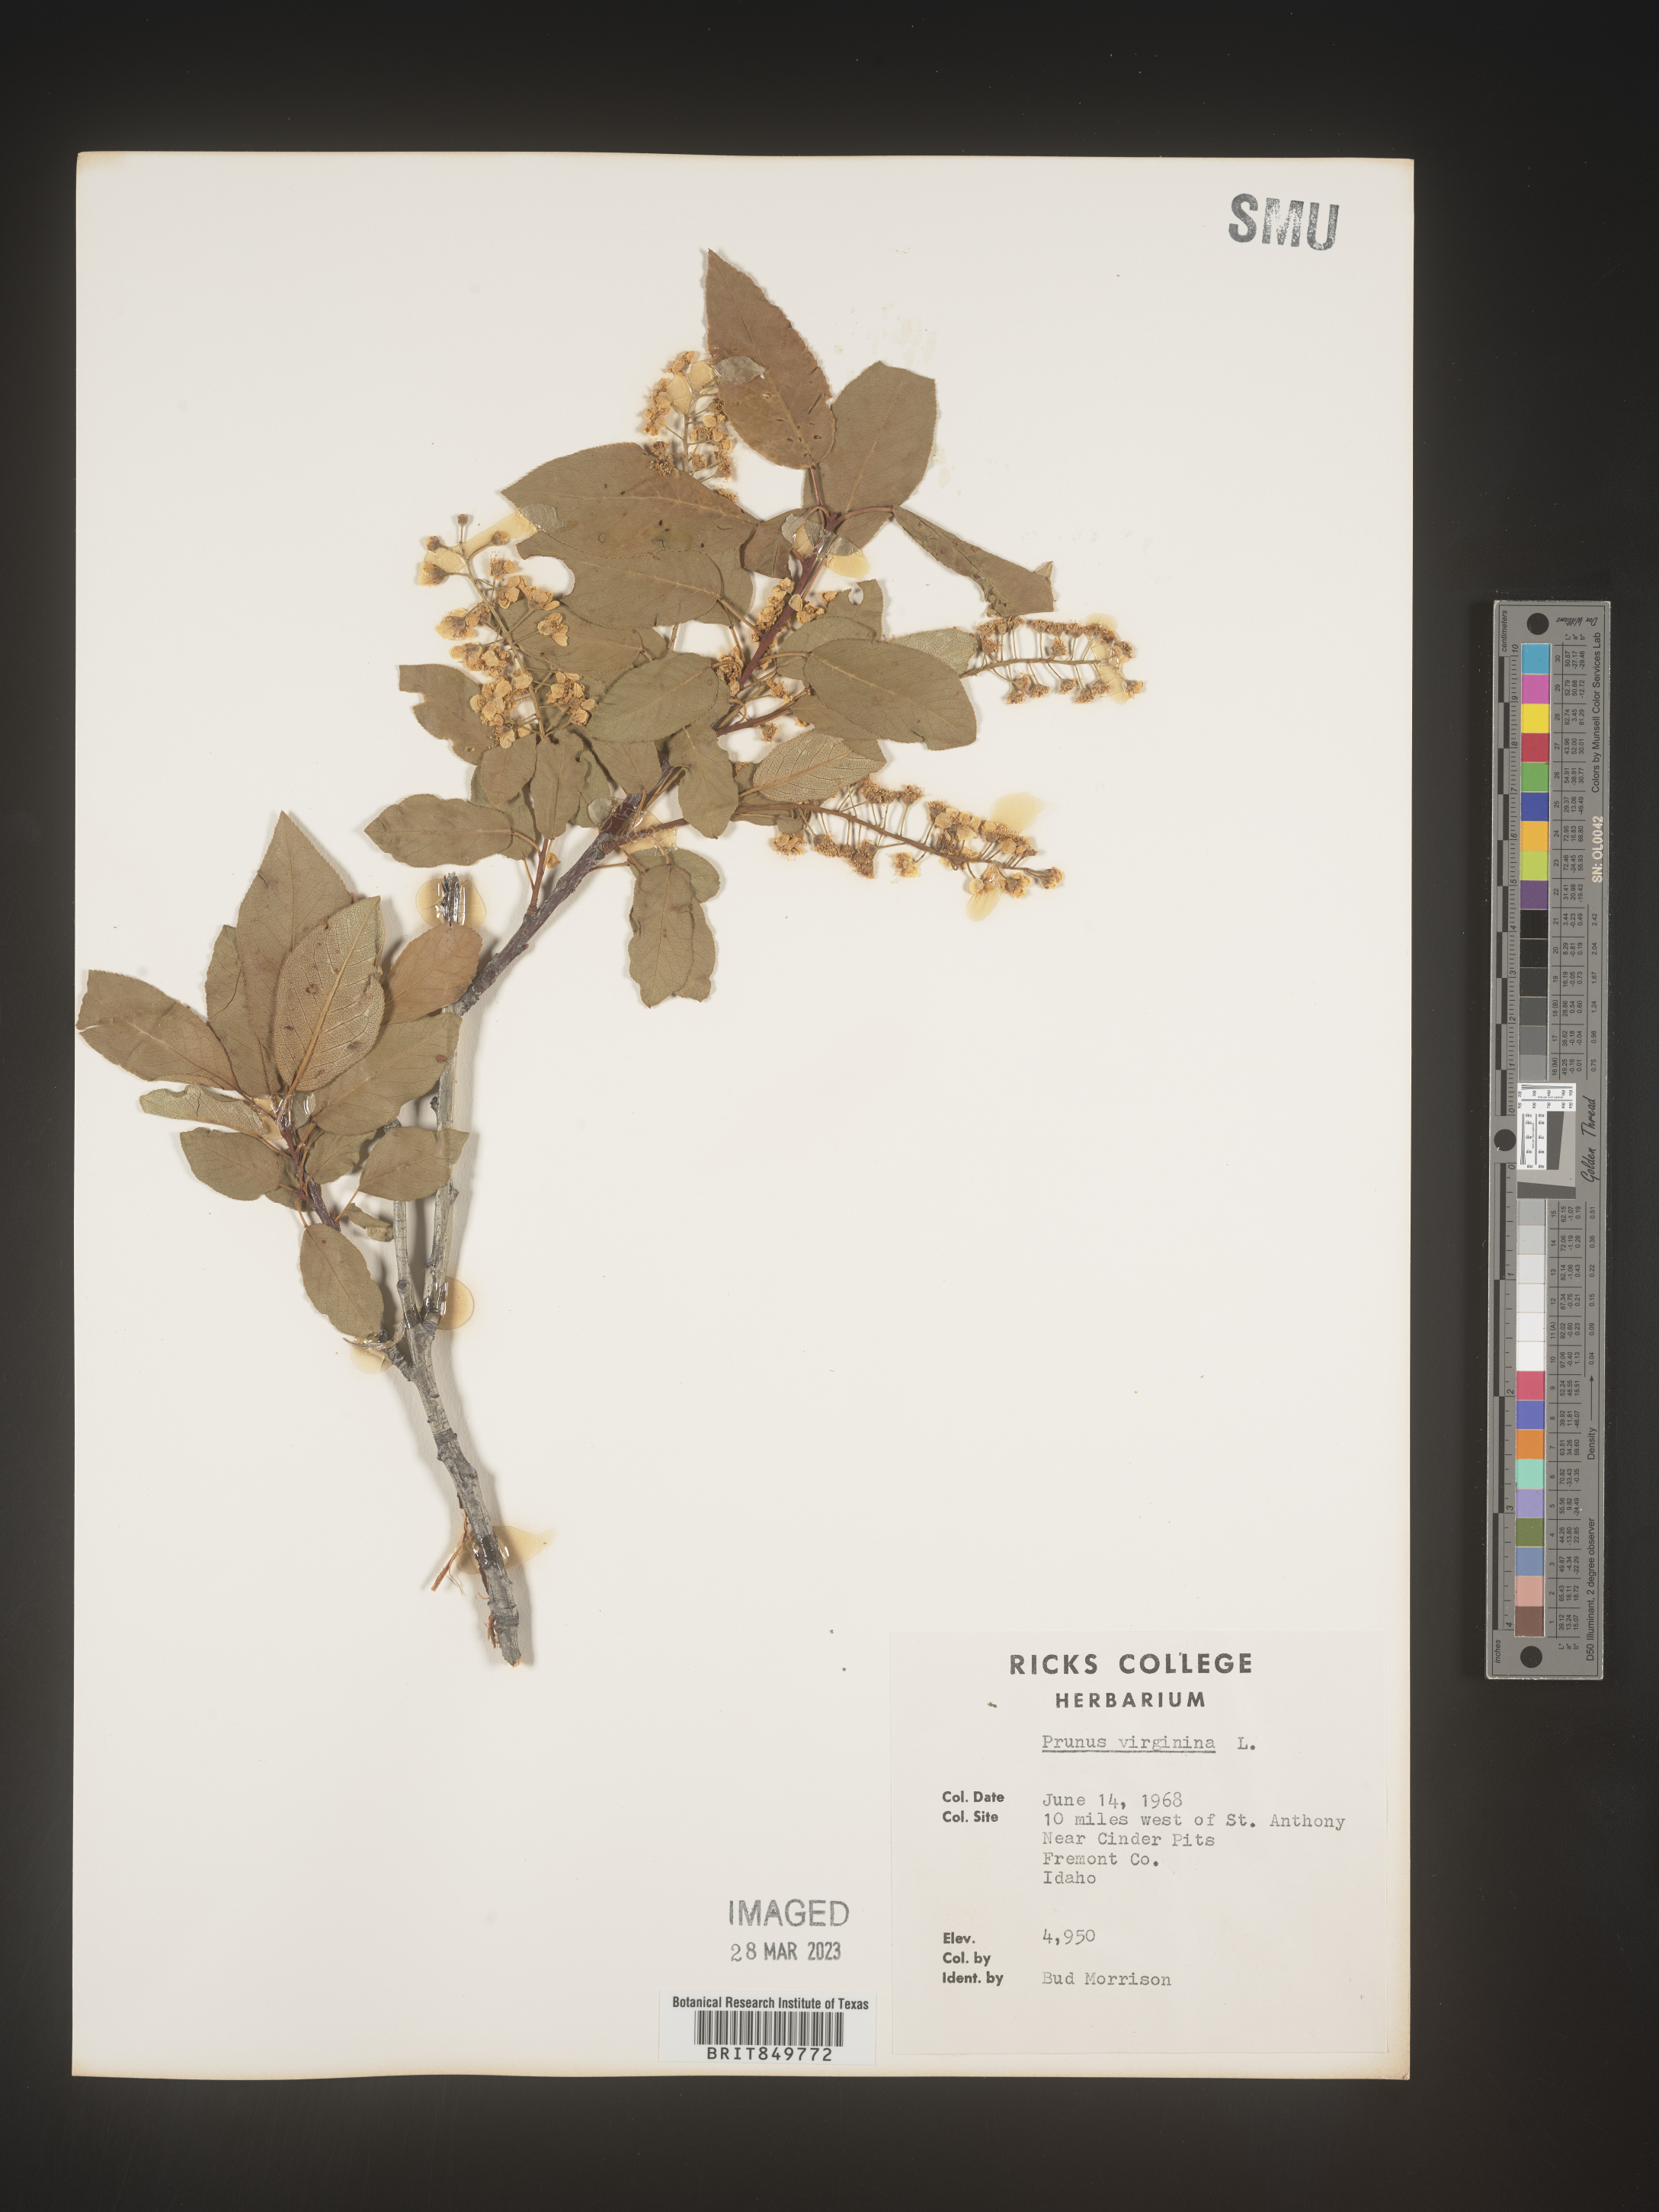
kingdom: Plantae
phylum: Tracheophyta
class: Magnoliopsida
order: Rosales
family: Rosaceae
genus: Prunus
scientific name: Prunus virginiana
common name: Chokecherry
